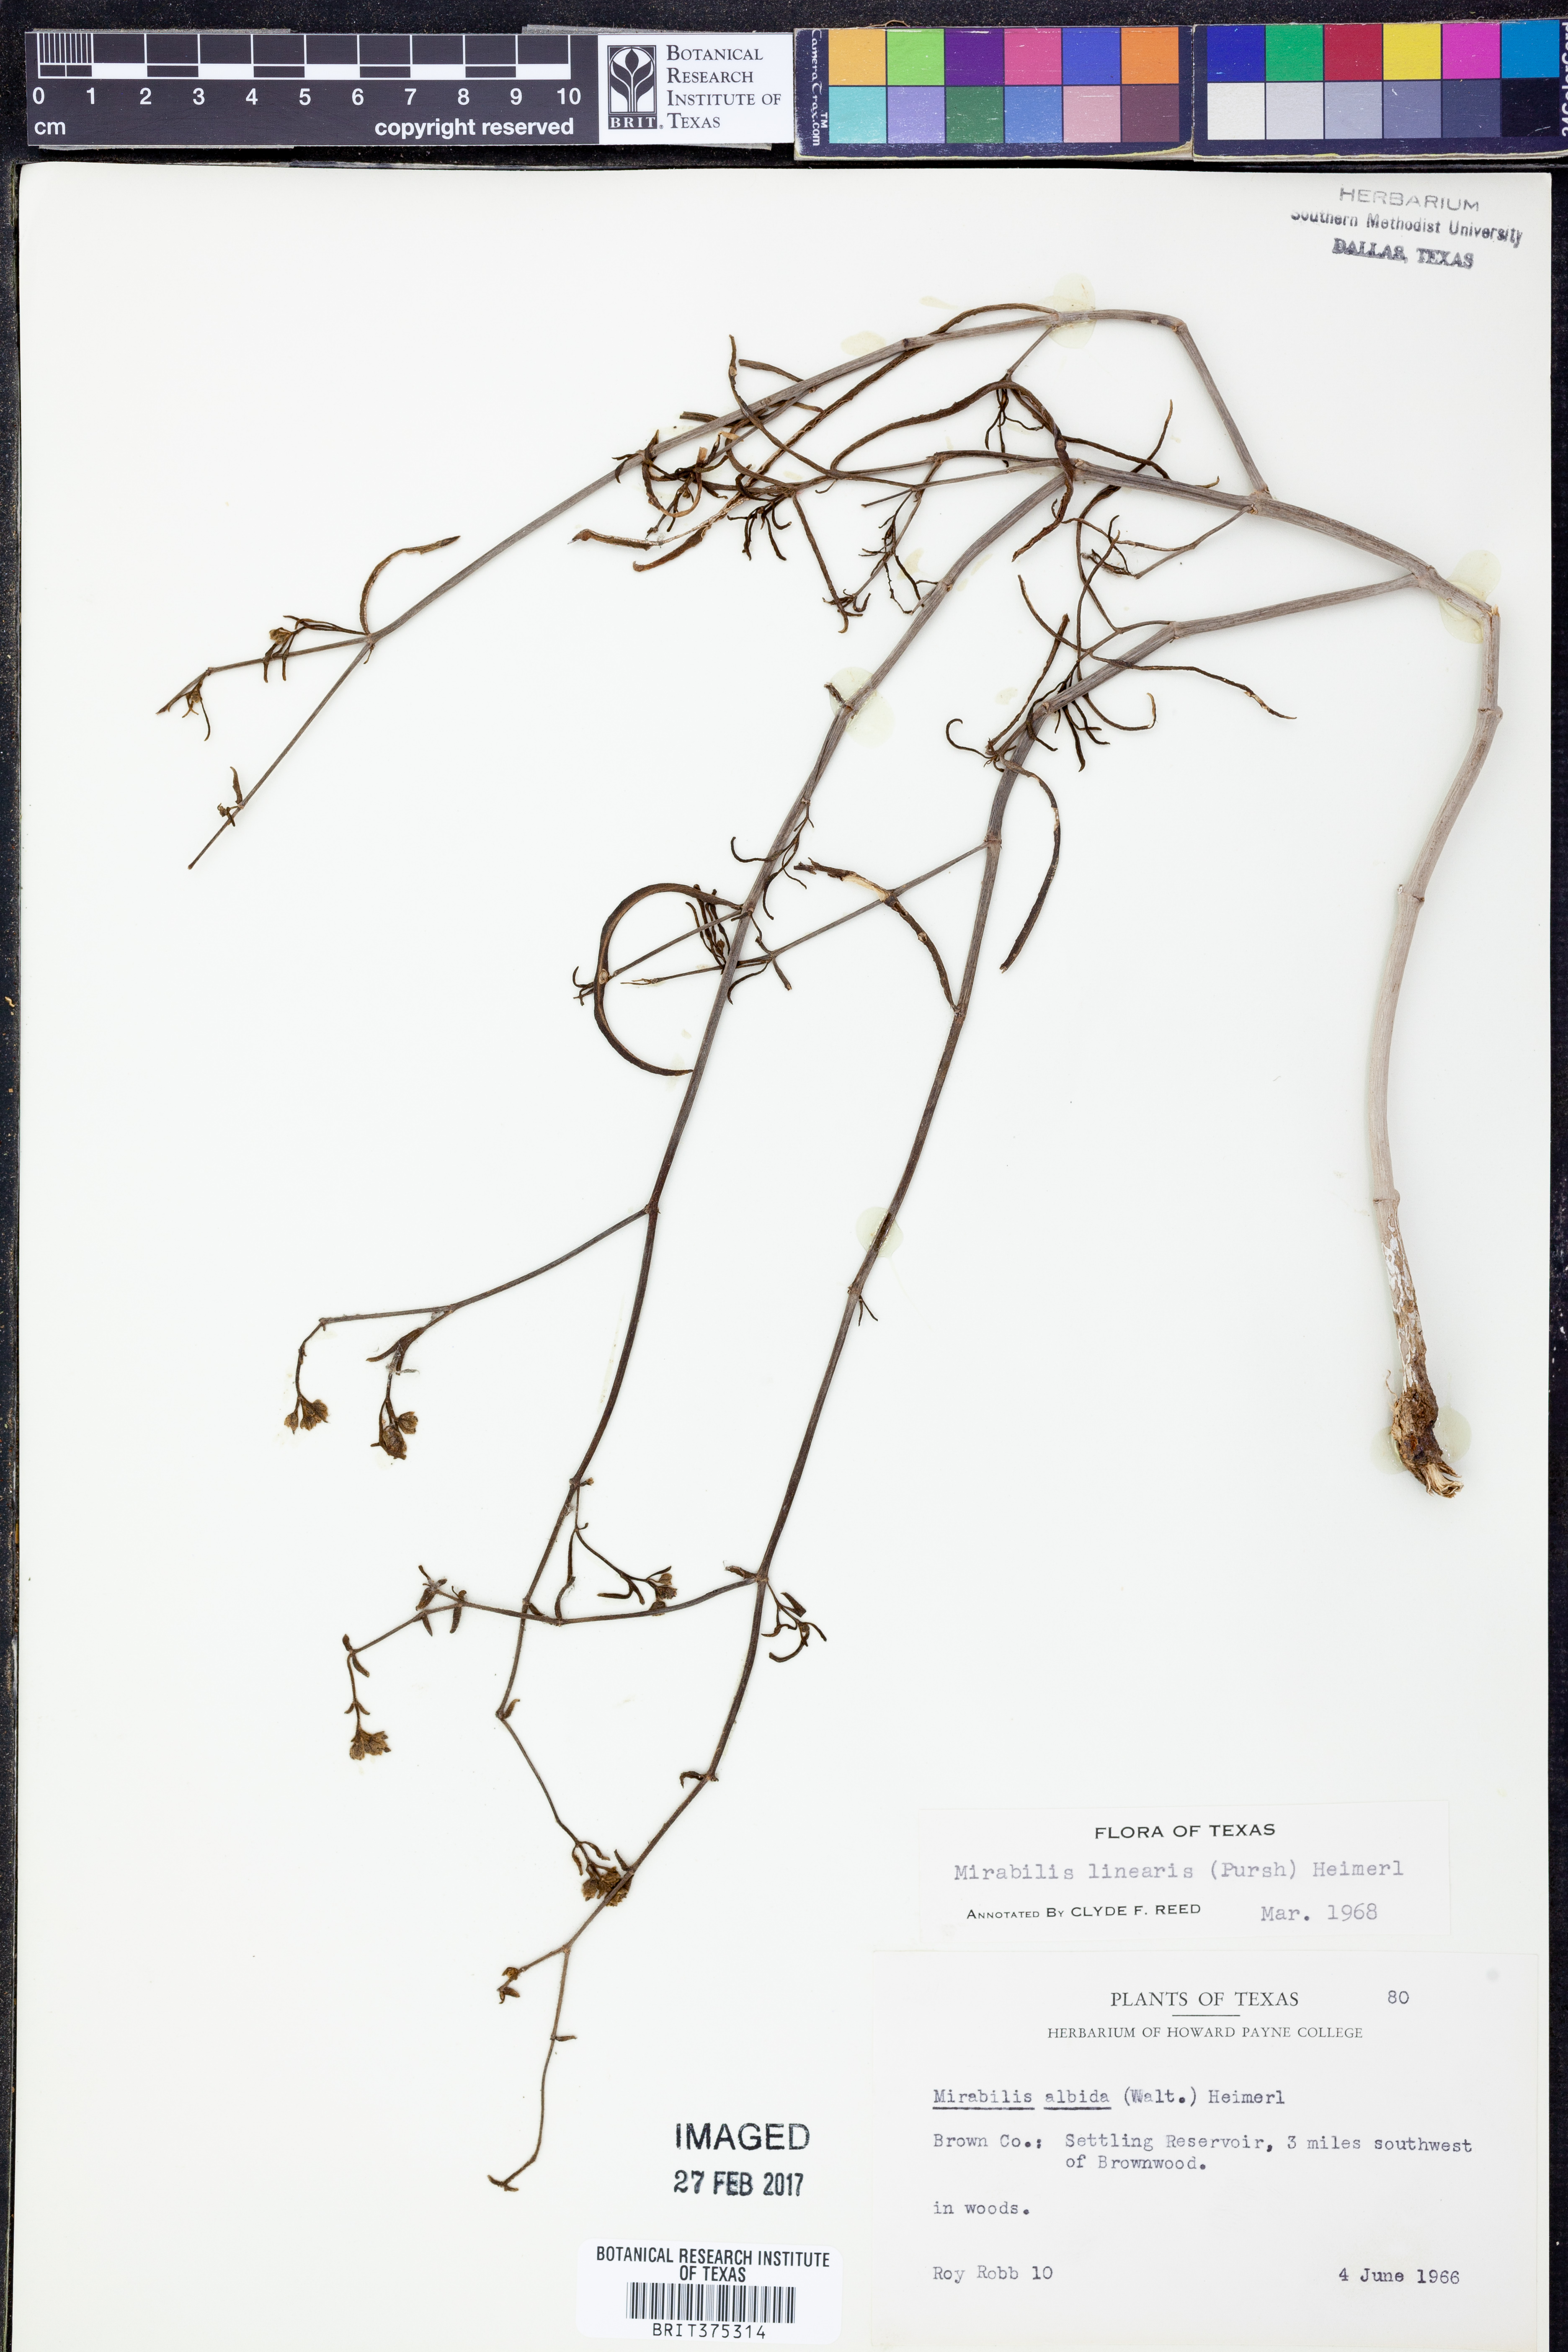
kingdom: Plantae
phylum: Tracheophyta
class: Magnoliopsida
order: Caryophyllales
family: Nyctaginaceae
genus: Mirabilis
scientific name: Mirabilis linearis
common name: Linear-leaved four-o'clock
